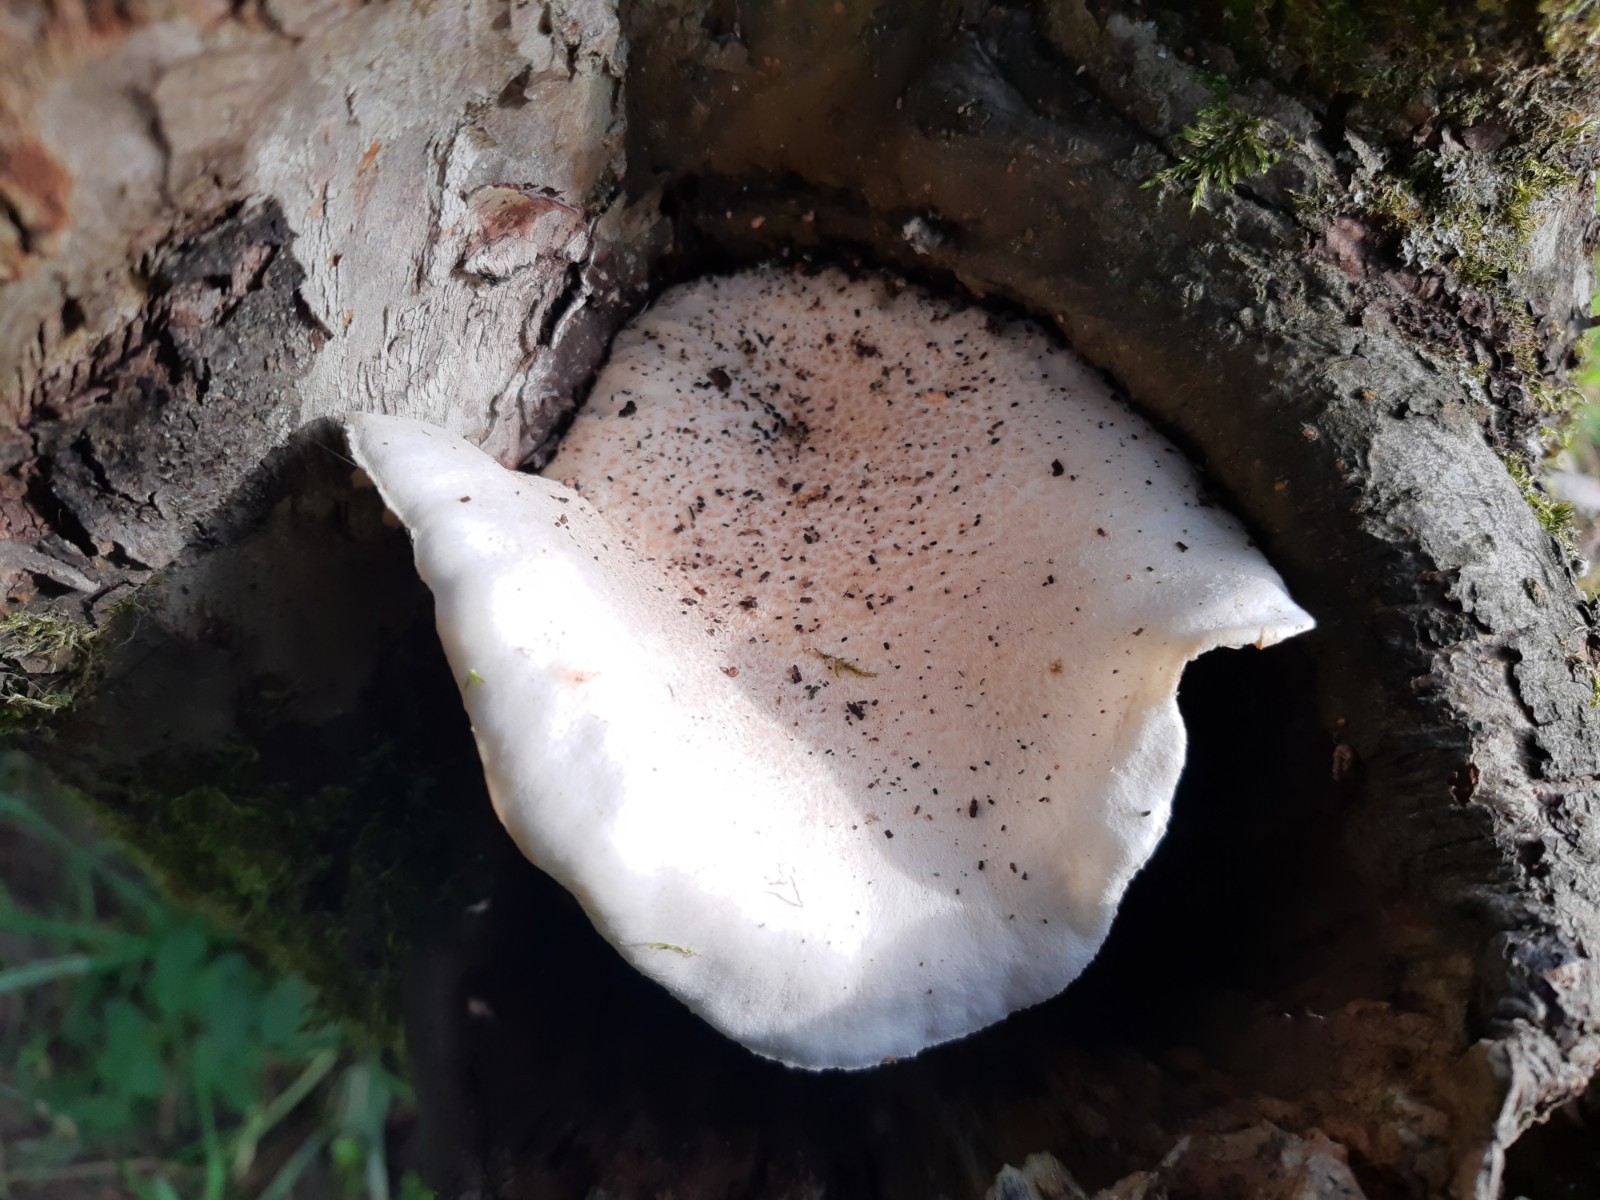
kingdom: Fungi
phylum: Basidiomycota
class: Agaricomycetes
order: Agaricales
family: Pleurotaceae
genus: Pleurotus
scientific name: Pleurotus dryinus
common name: korkagtig østershat
